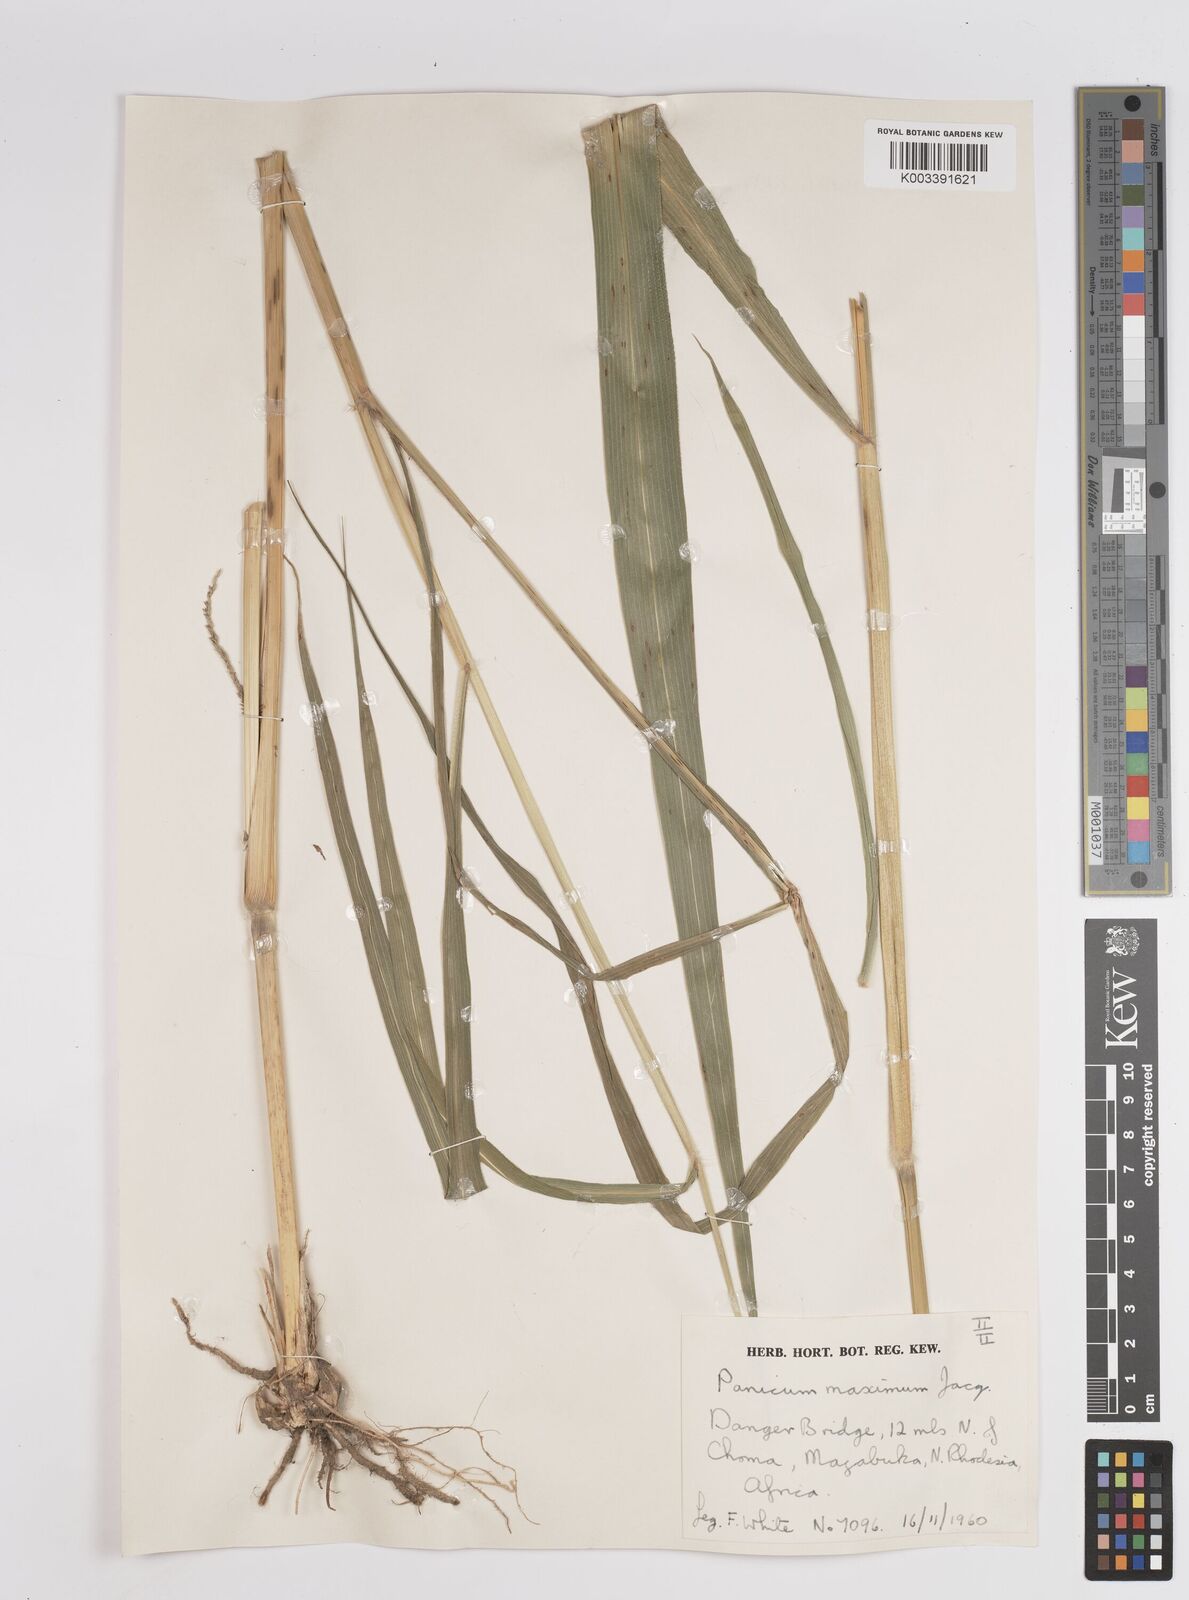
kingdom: Plantae
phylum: Tracheophyta
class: Liliopsida
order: Poales
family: Poaceae
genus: Megathyrsus
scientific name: Megathyrsus maximus
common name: Guineagrass
